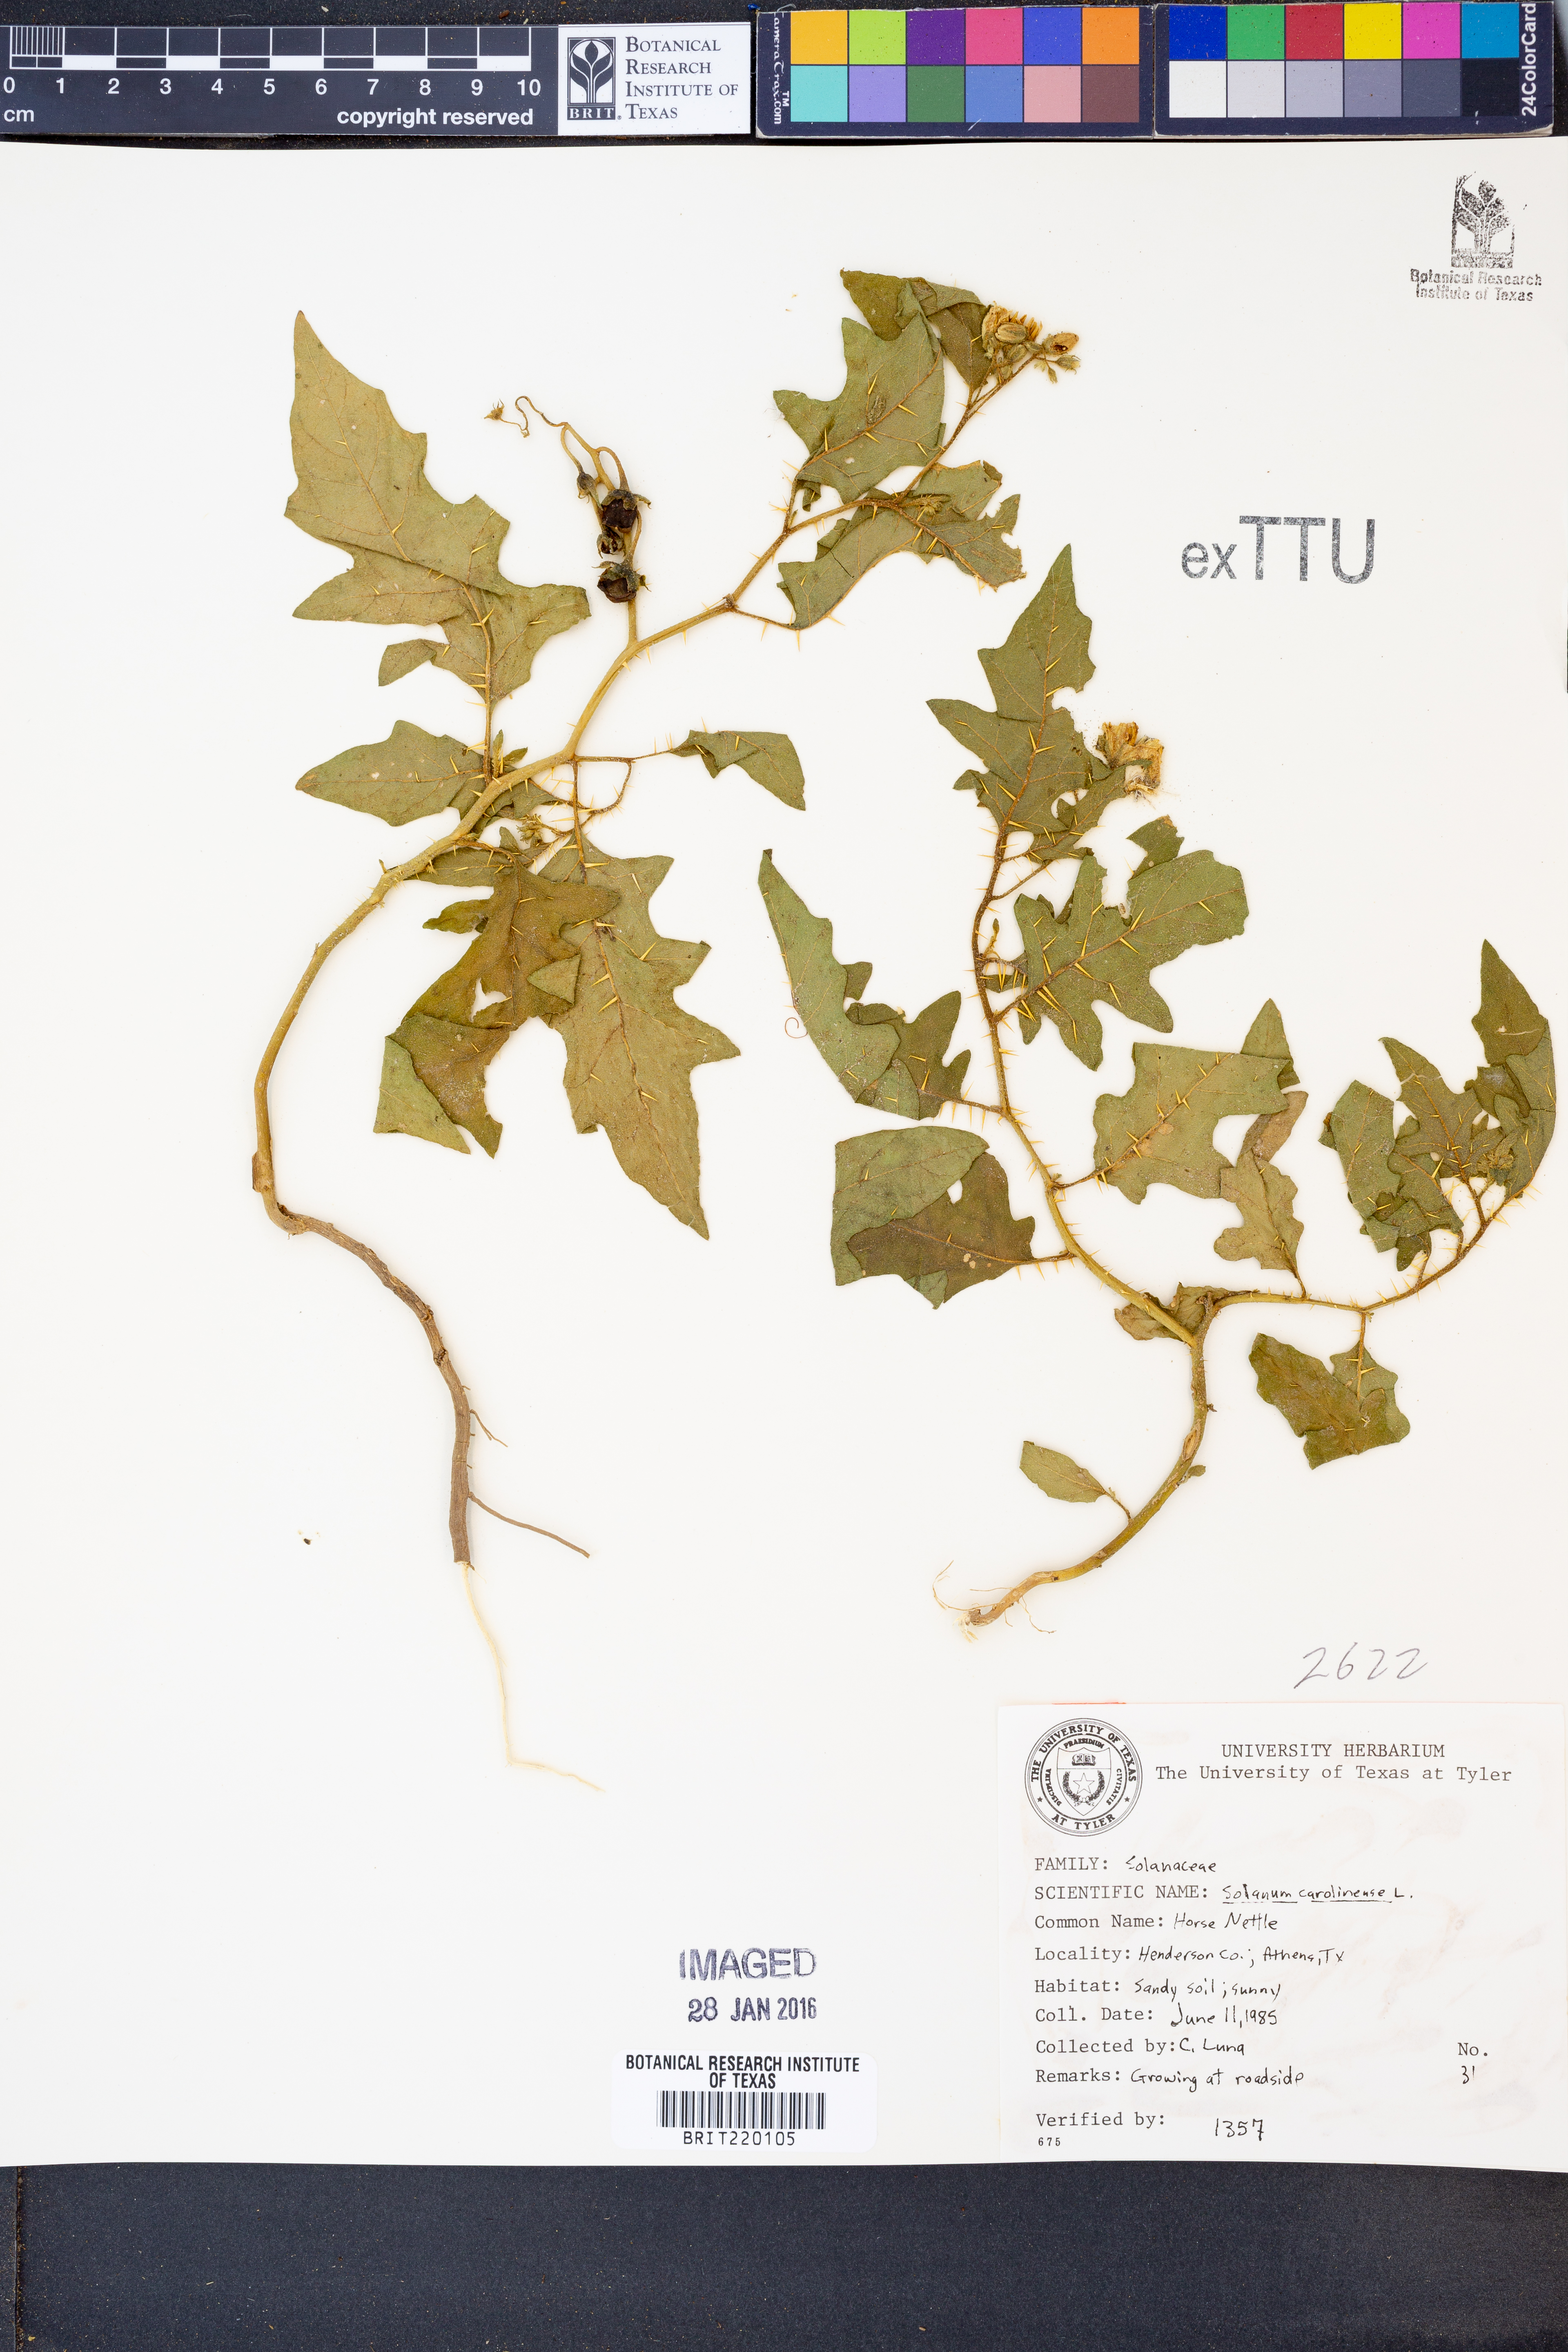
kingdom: Plantae
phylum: Tracheophyta
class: Magnoliopsida
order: Solanales
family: Solanaceae
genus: Solanum
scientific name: Solanum carolinense
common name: Horse-nettle
